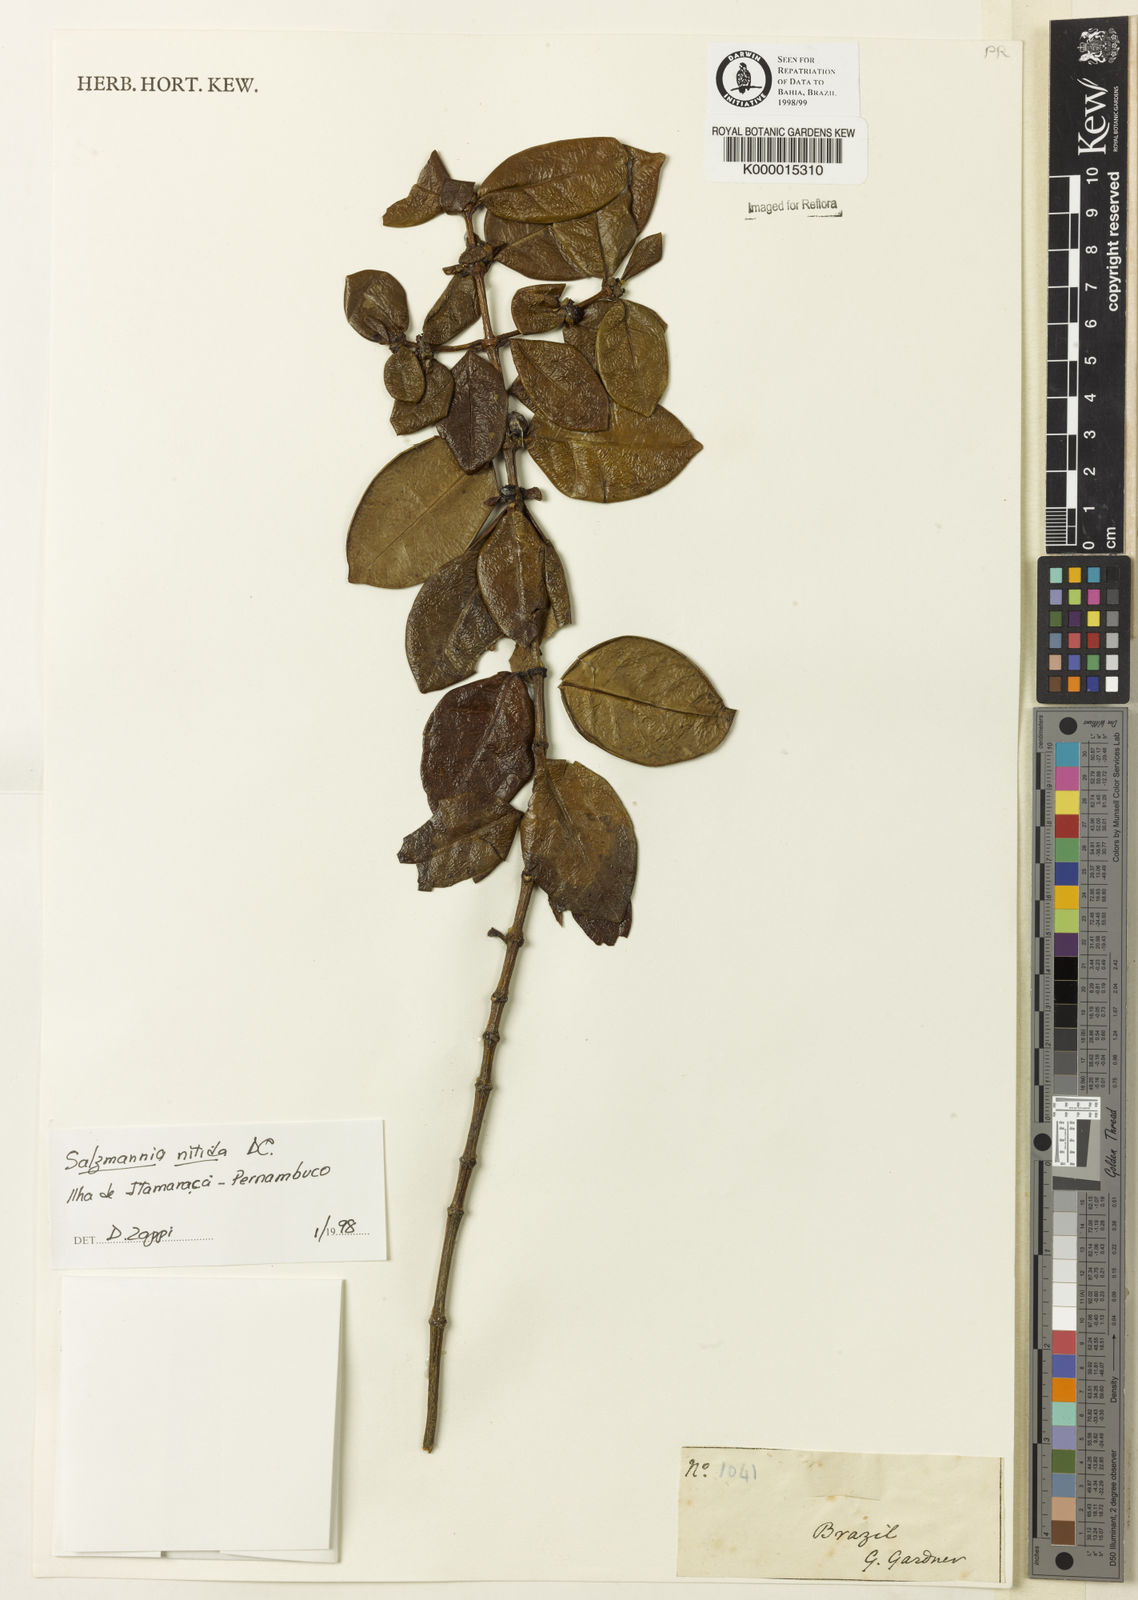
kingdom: Plantae
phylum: Tracheophyta
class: Magnoliopsida
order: Gentianales
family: Rubiaceae
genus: Salzmannia
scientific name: Salzmannia nitida
